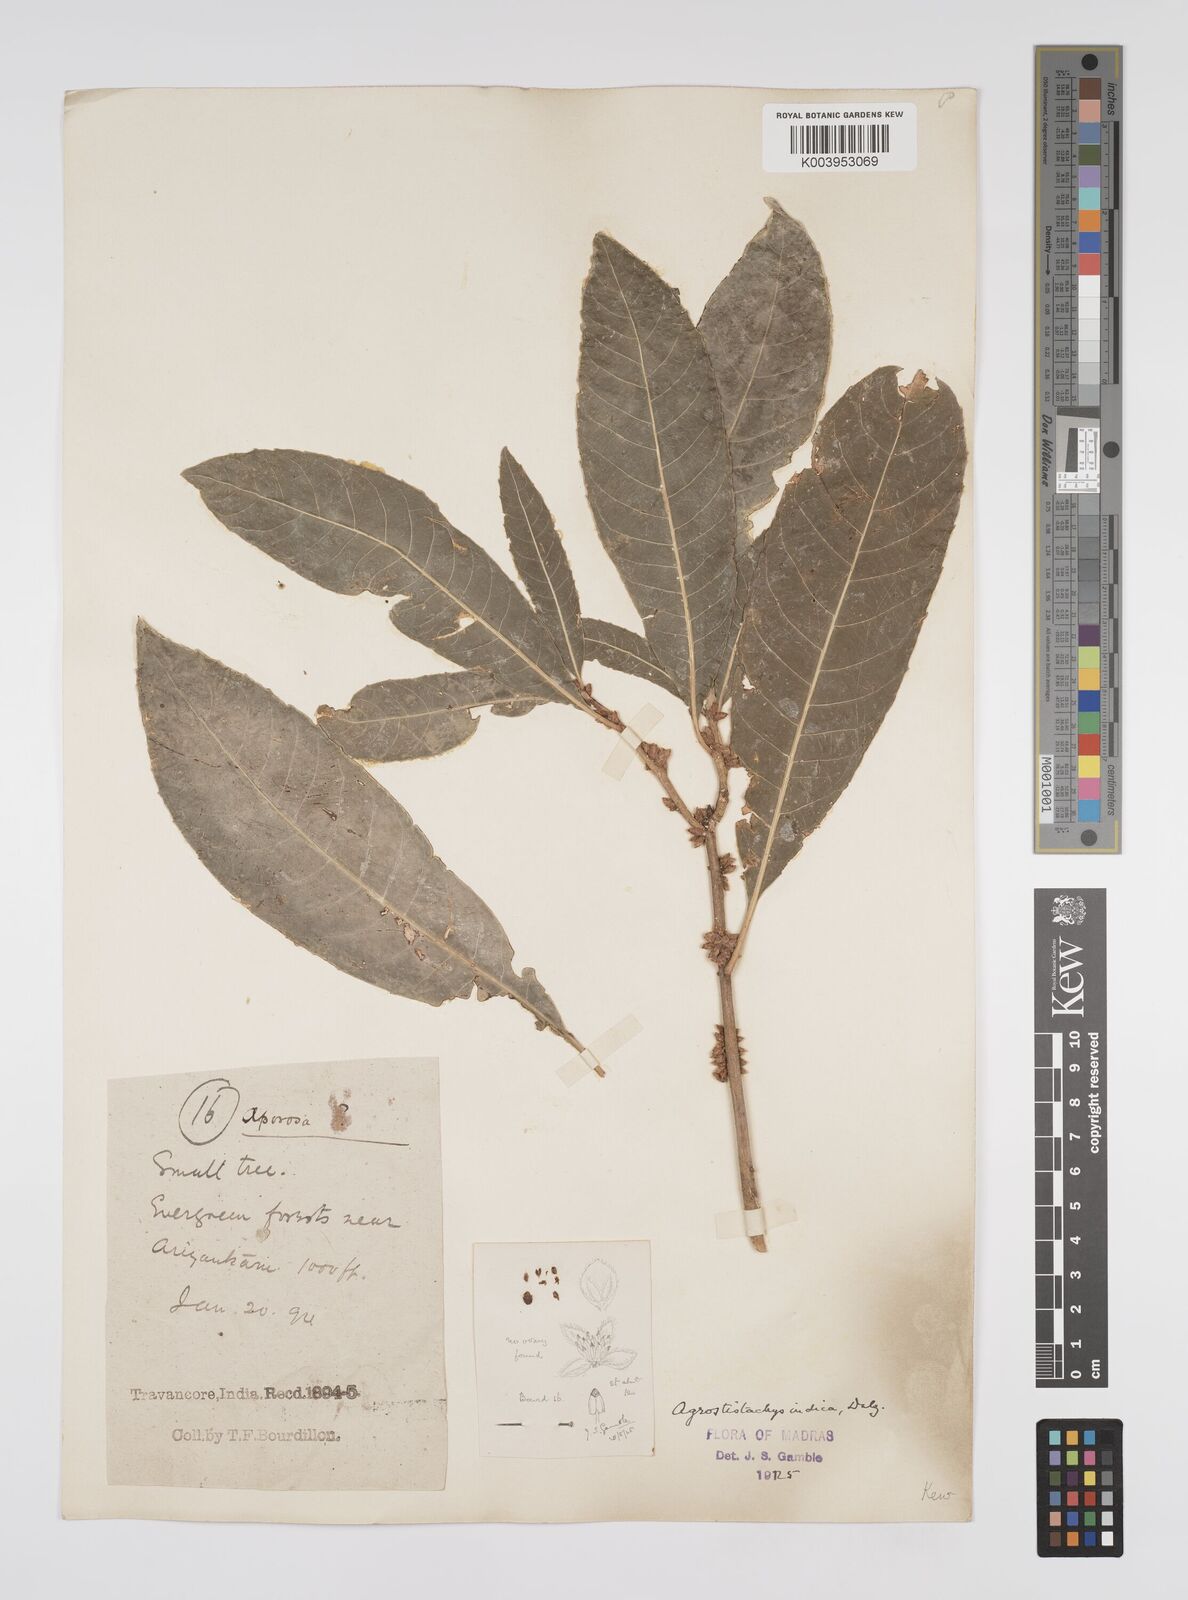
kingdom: Plantae
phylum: Tracheophyta
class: Magnoliopsida
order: Malpighiales
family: Euphorbiaceae
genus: Agrostistachys
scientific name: Agrostistachys indica
